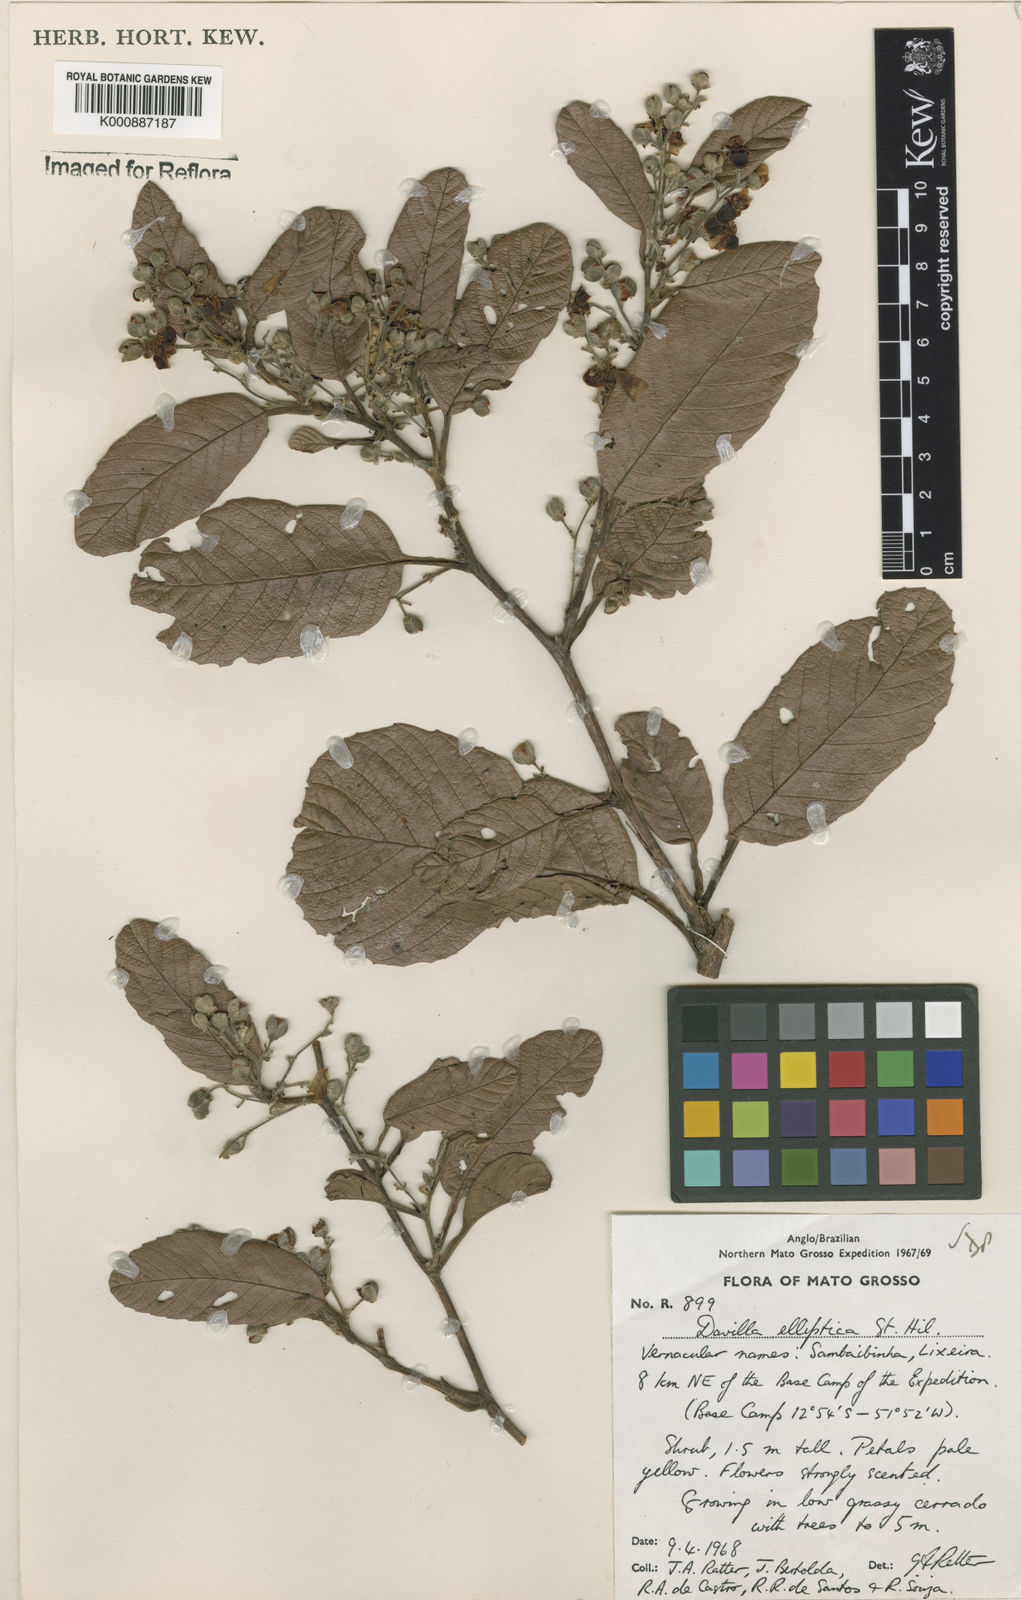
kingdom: Plantae
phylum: Tracheophyta
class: Magnoliopsida
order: Dilleniales
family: Dilleniaceae
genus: Davilla
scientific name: Davilla elliptica
